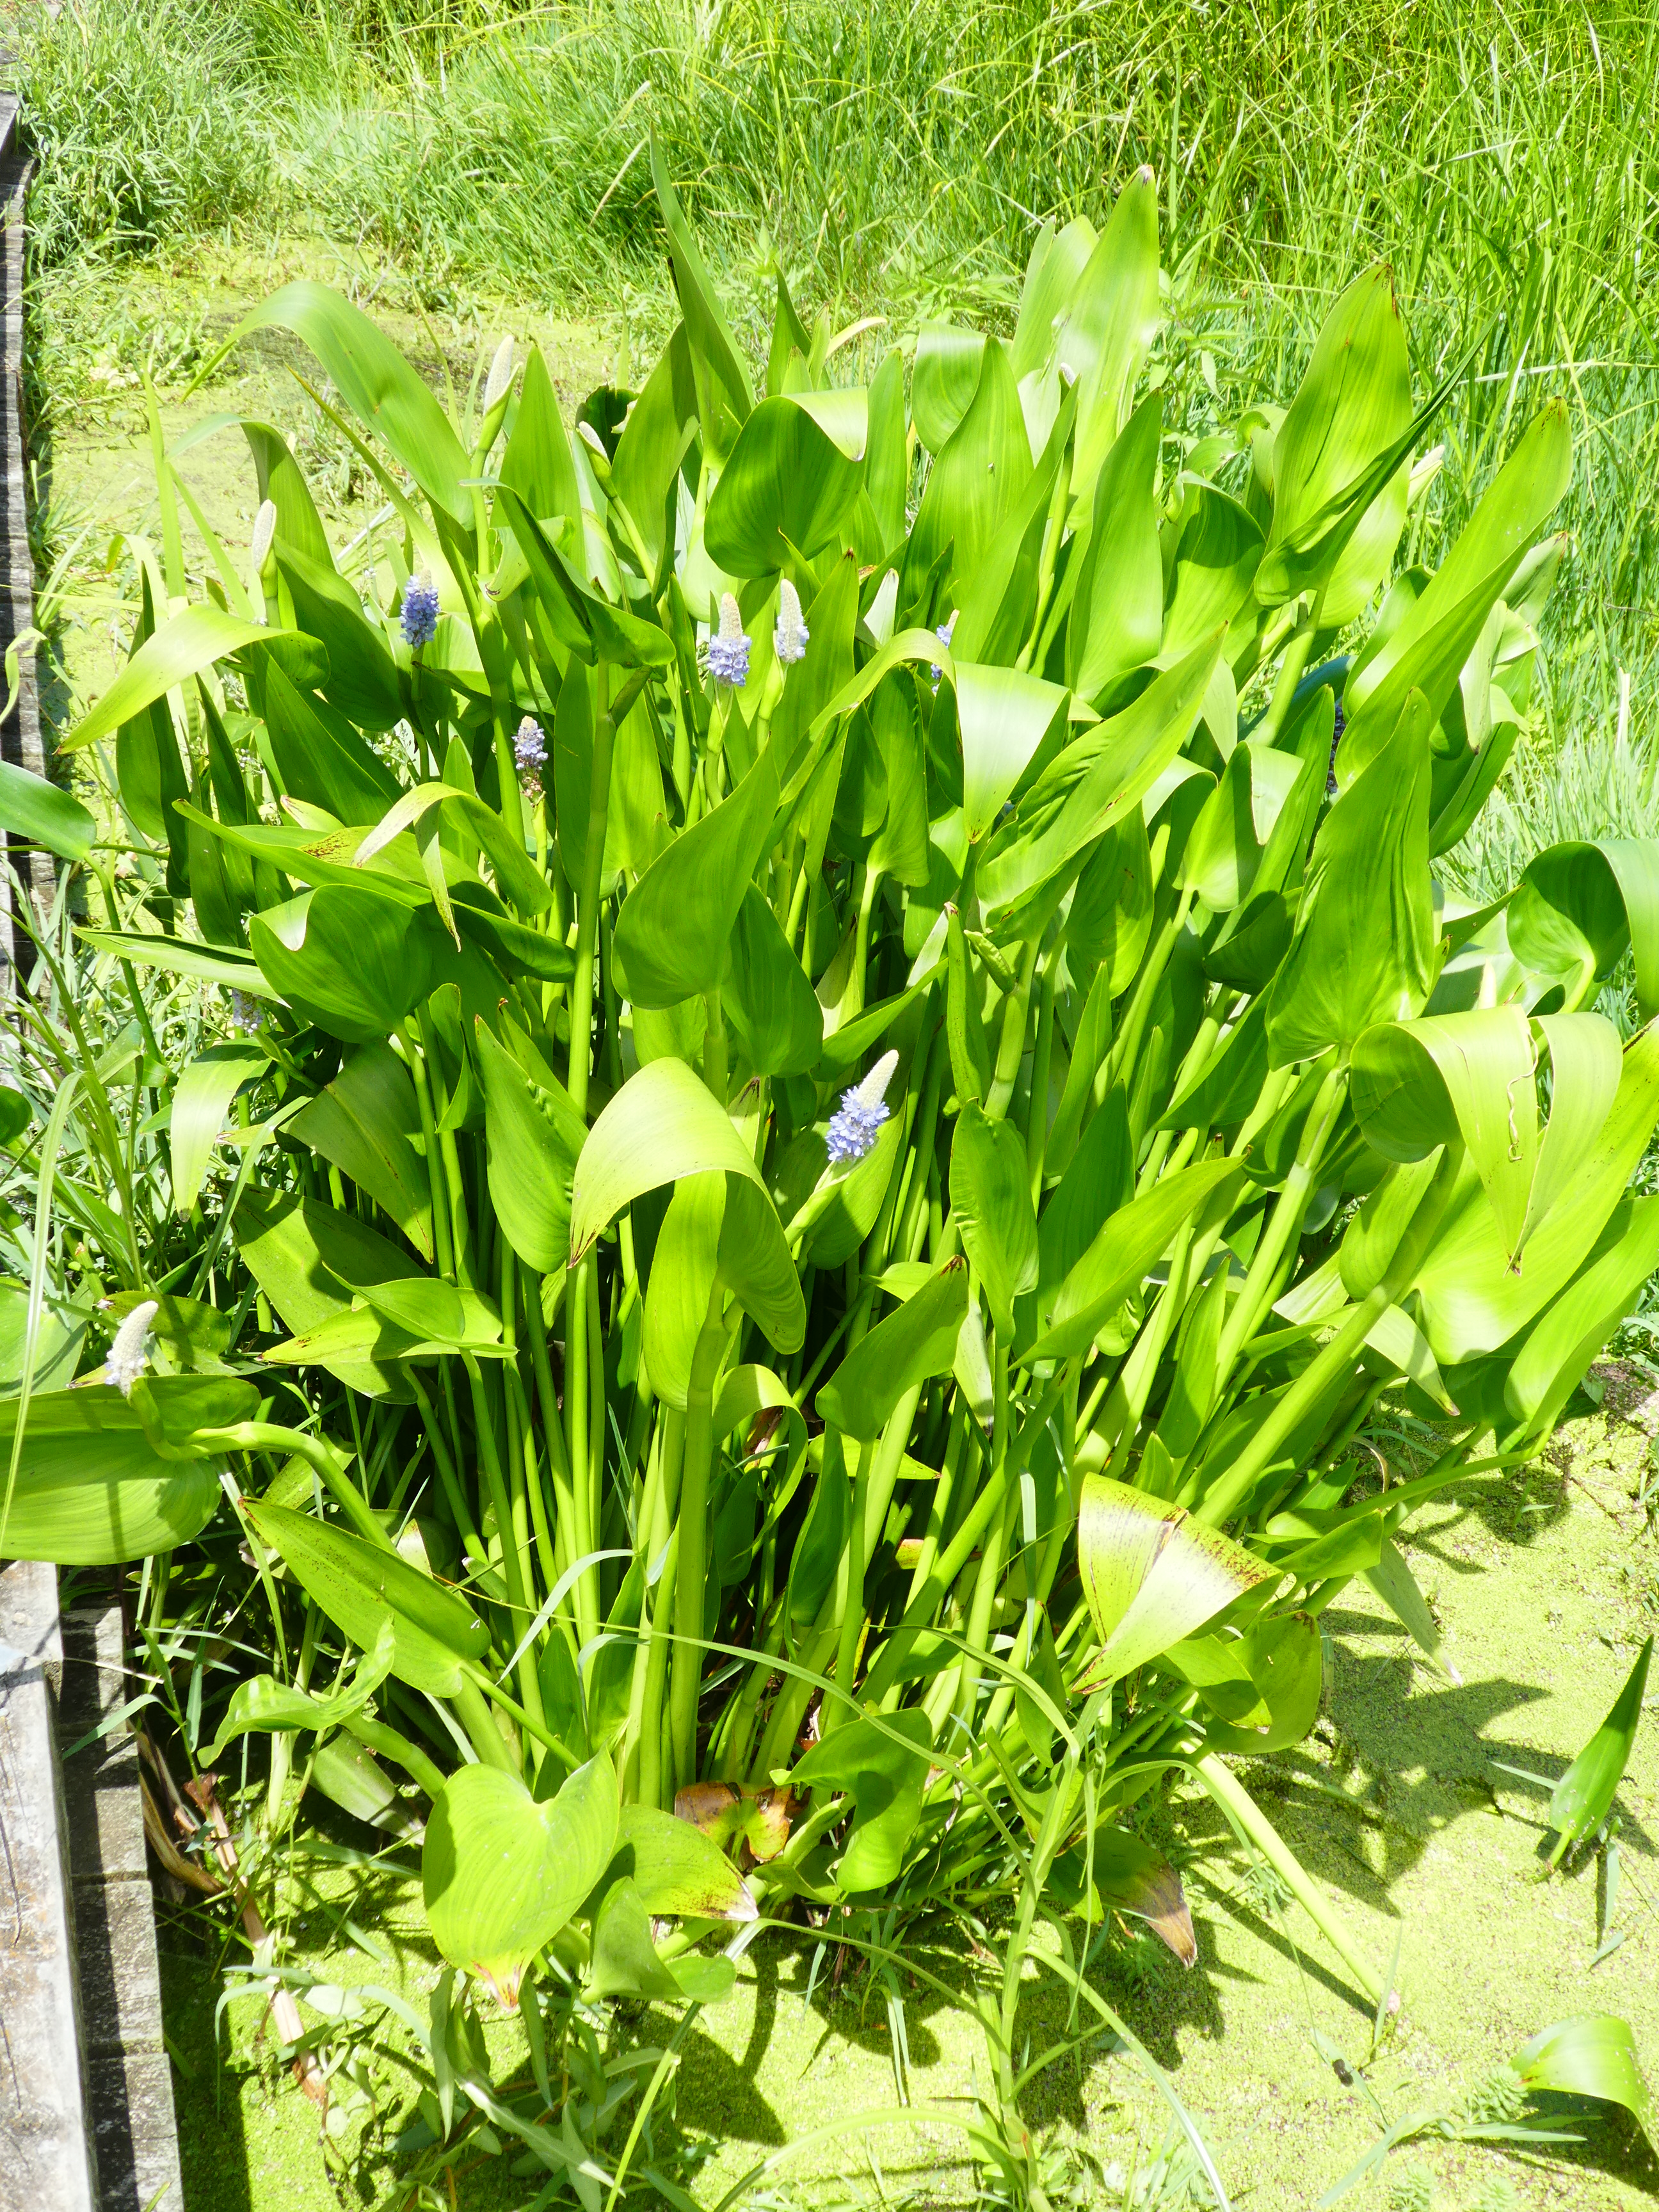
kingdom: Plantae
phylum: Tracheophyta
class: Liliopsida
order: Commelinales
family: Pontederiaceae
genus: Pontederia
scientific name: Pontederia cordata
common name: Pickerelweed
